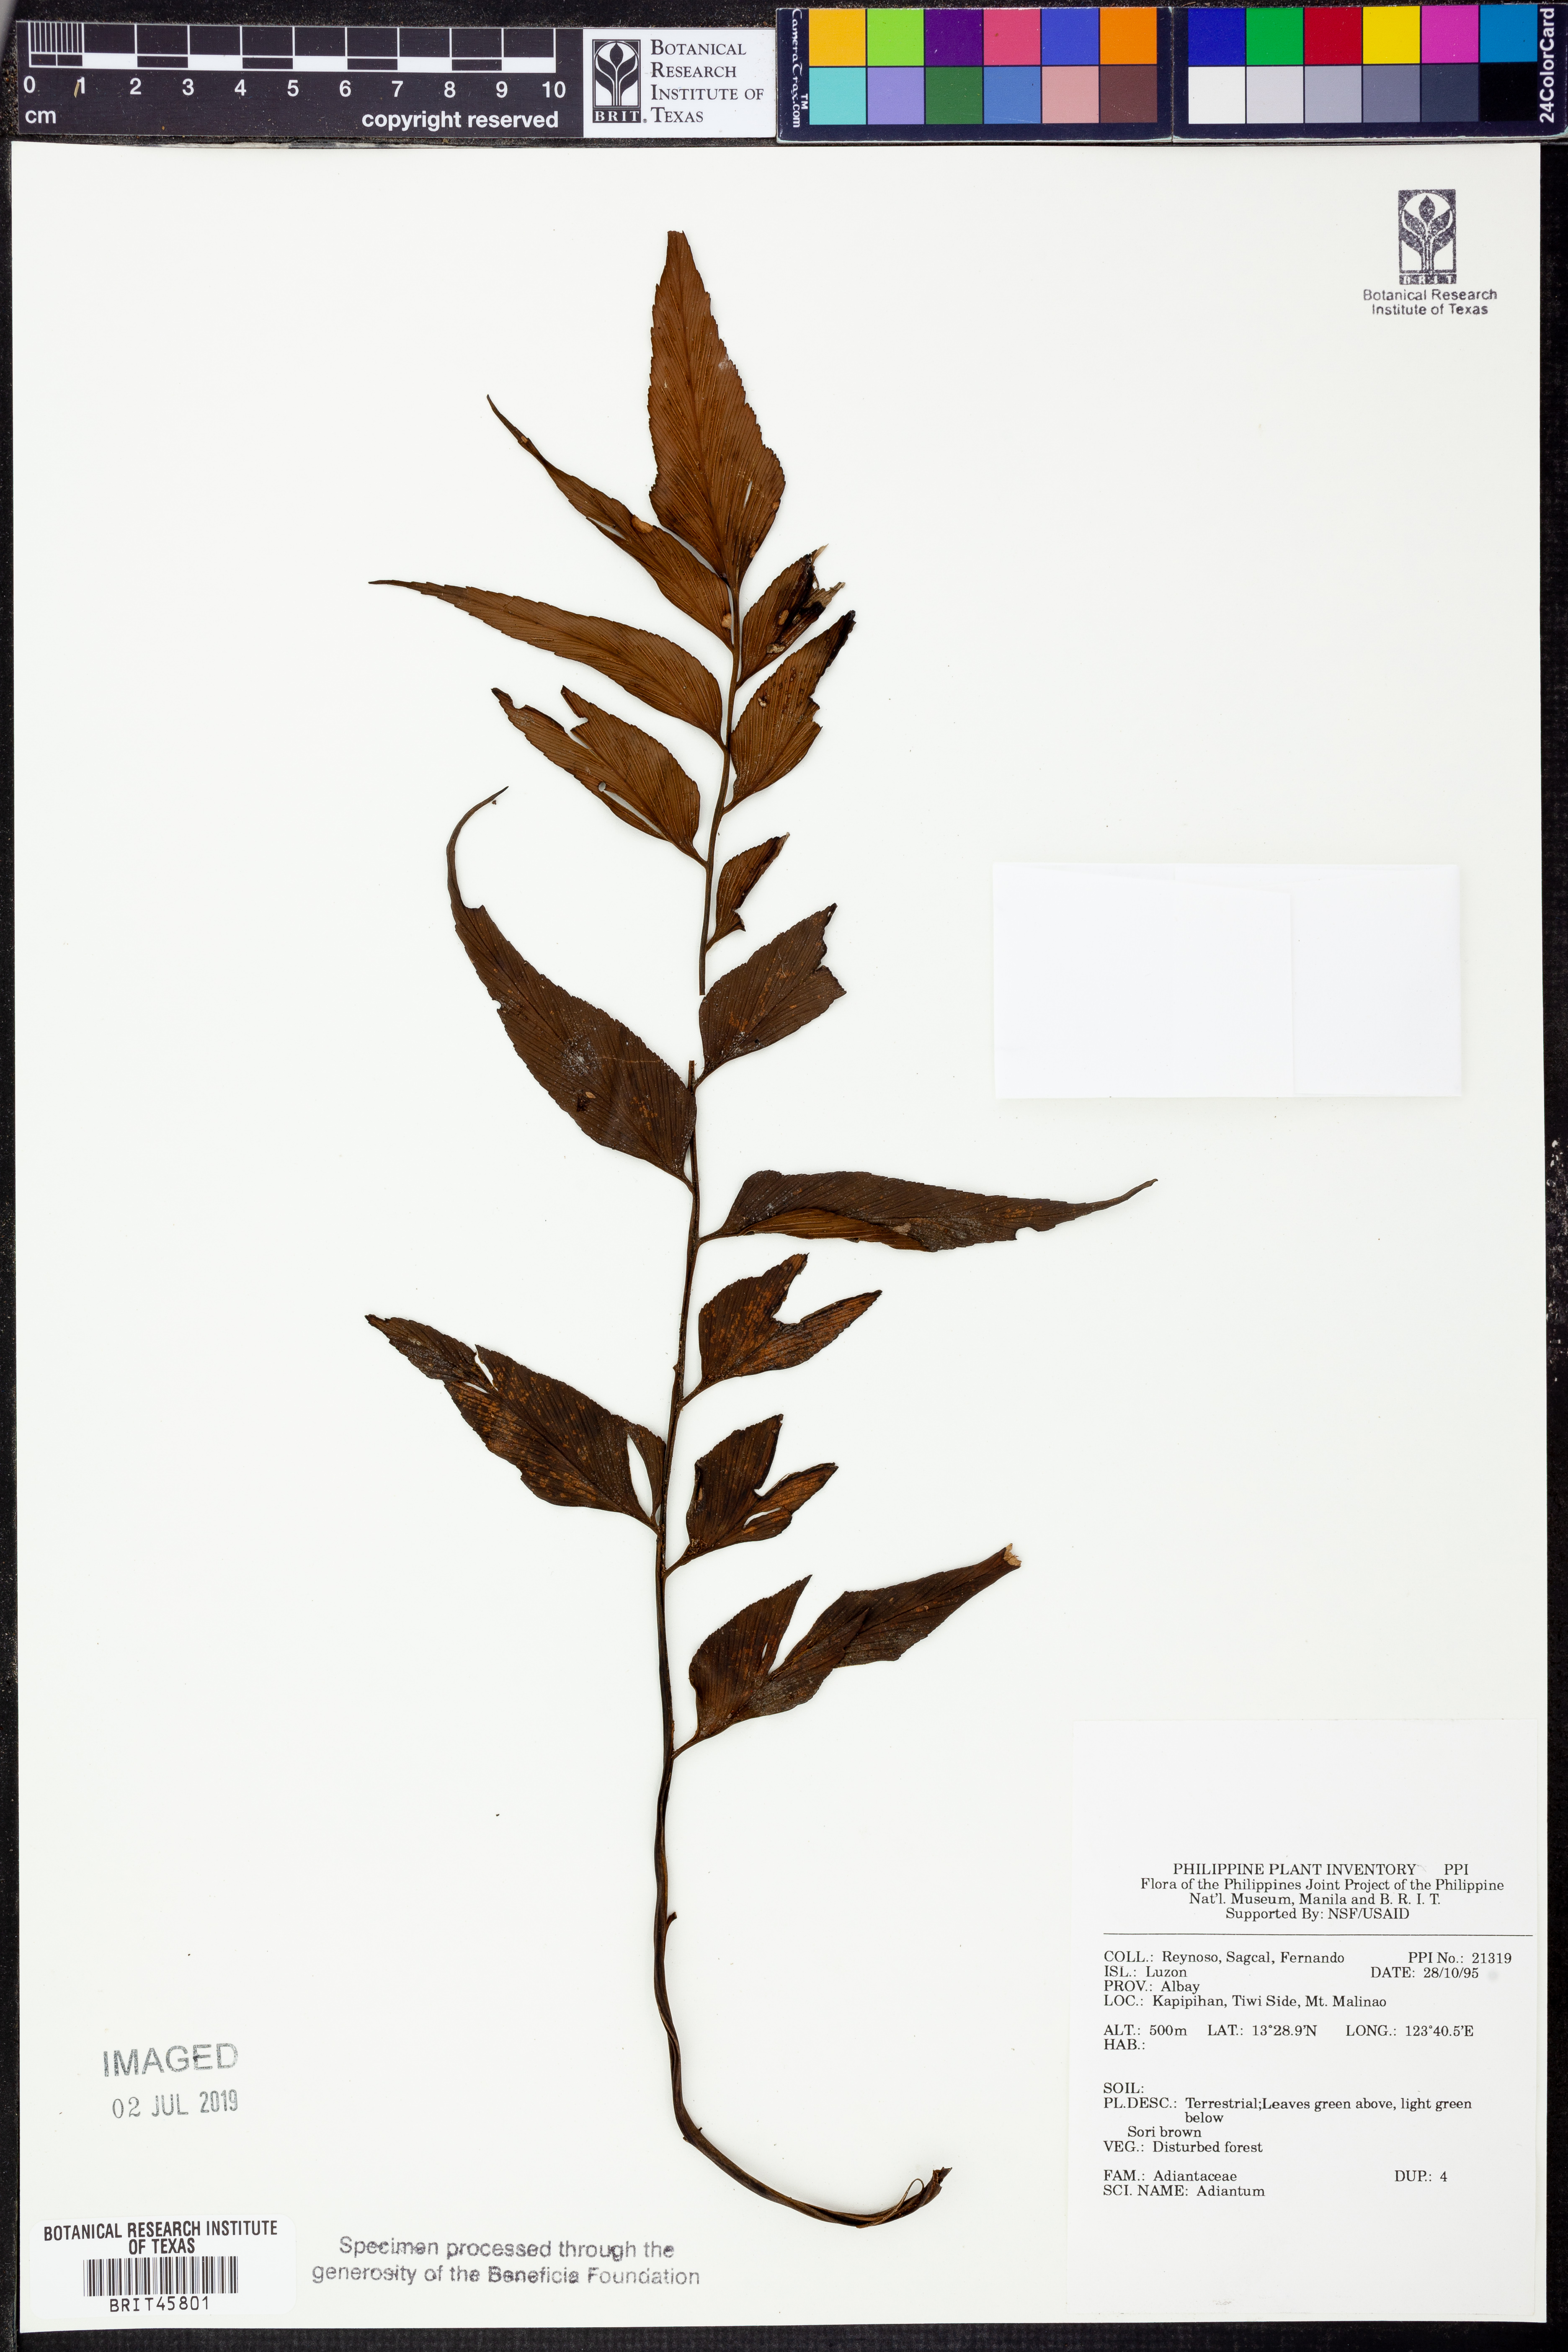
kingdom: Plantae
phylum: Tracheophyta
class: Polypodiopsida
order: Polypodiales
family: Pteridaceae
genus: Adiantum
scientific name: Adiantum
